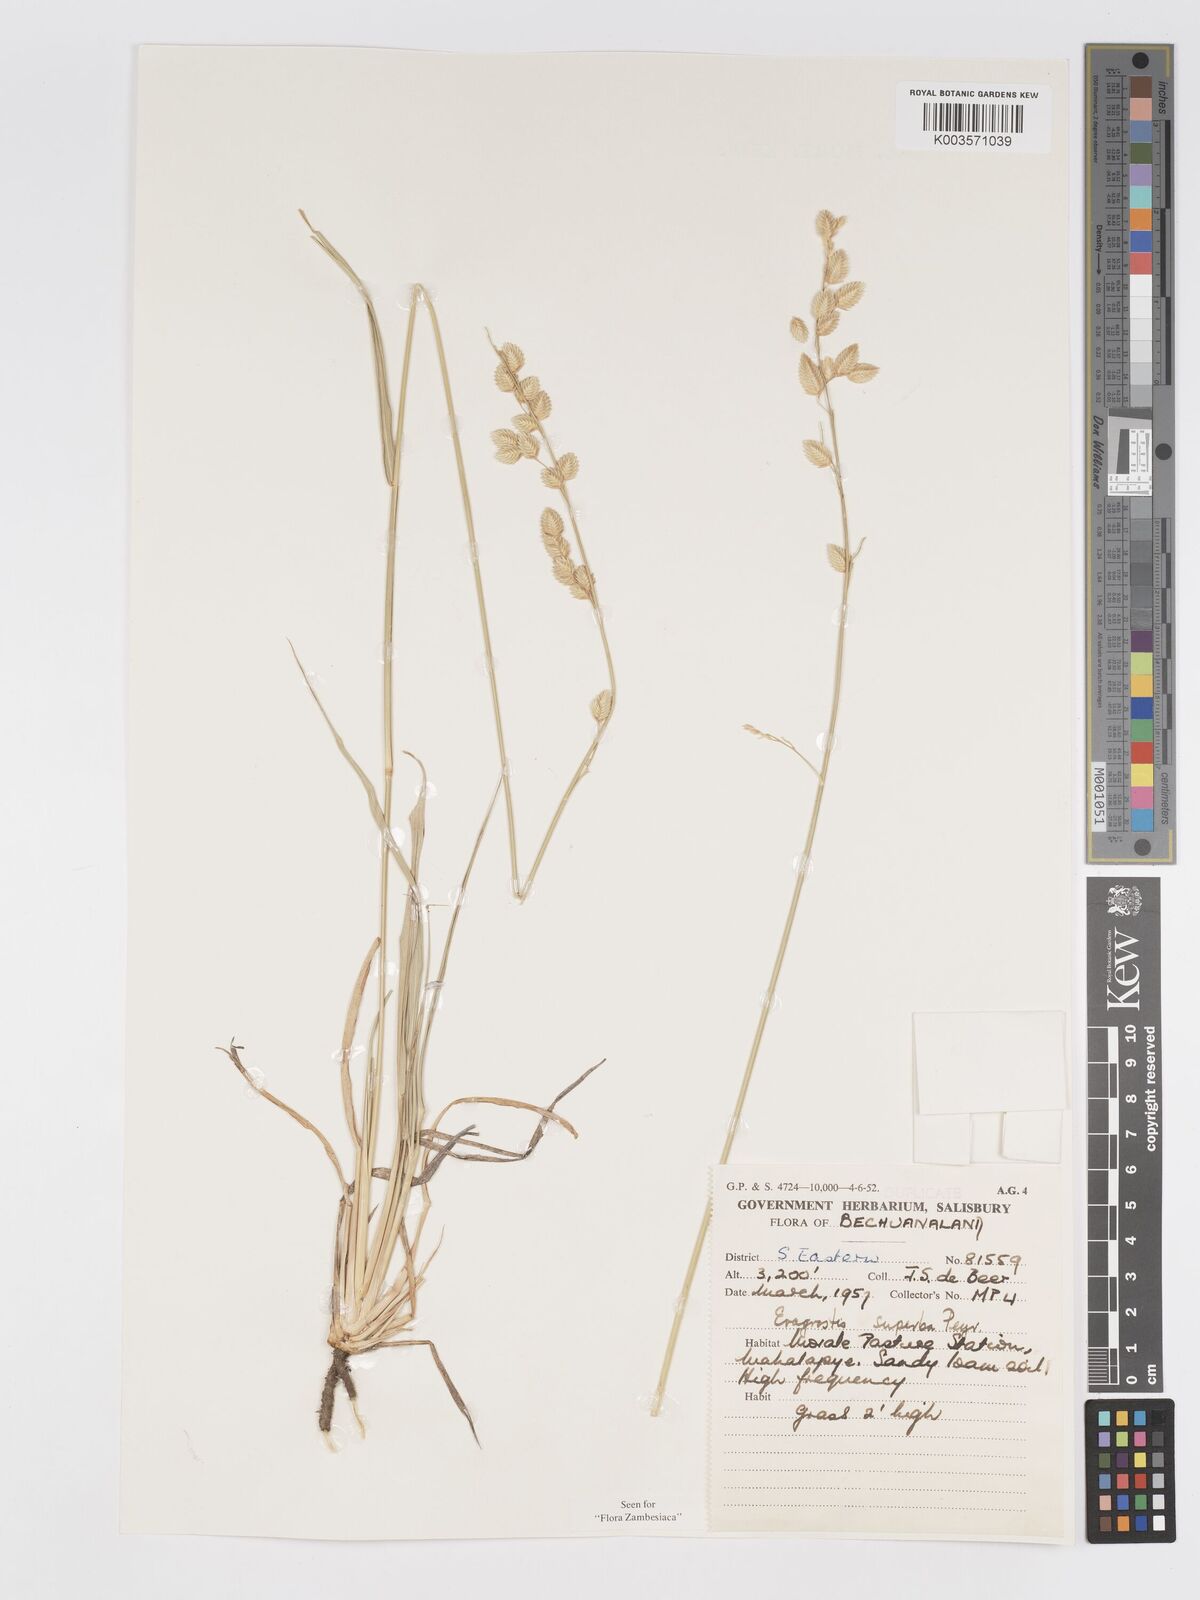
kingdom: Plantae
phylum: Tracheophyta
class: Liliopsida
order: Poales
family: Poaceae
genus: Eragrostis
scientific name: Eragrostis superba
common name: Wilman lovegrass
